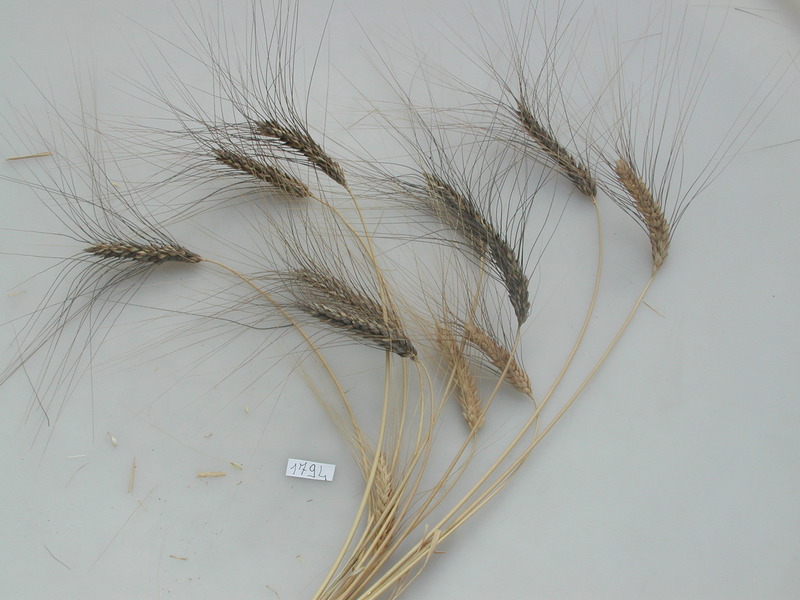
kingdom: Plantae
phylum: Tracheophyta
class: Liliopsida
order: Poales
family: Poaceae
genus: Triticum
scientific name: Triticum turgidum
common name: Wheat
